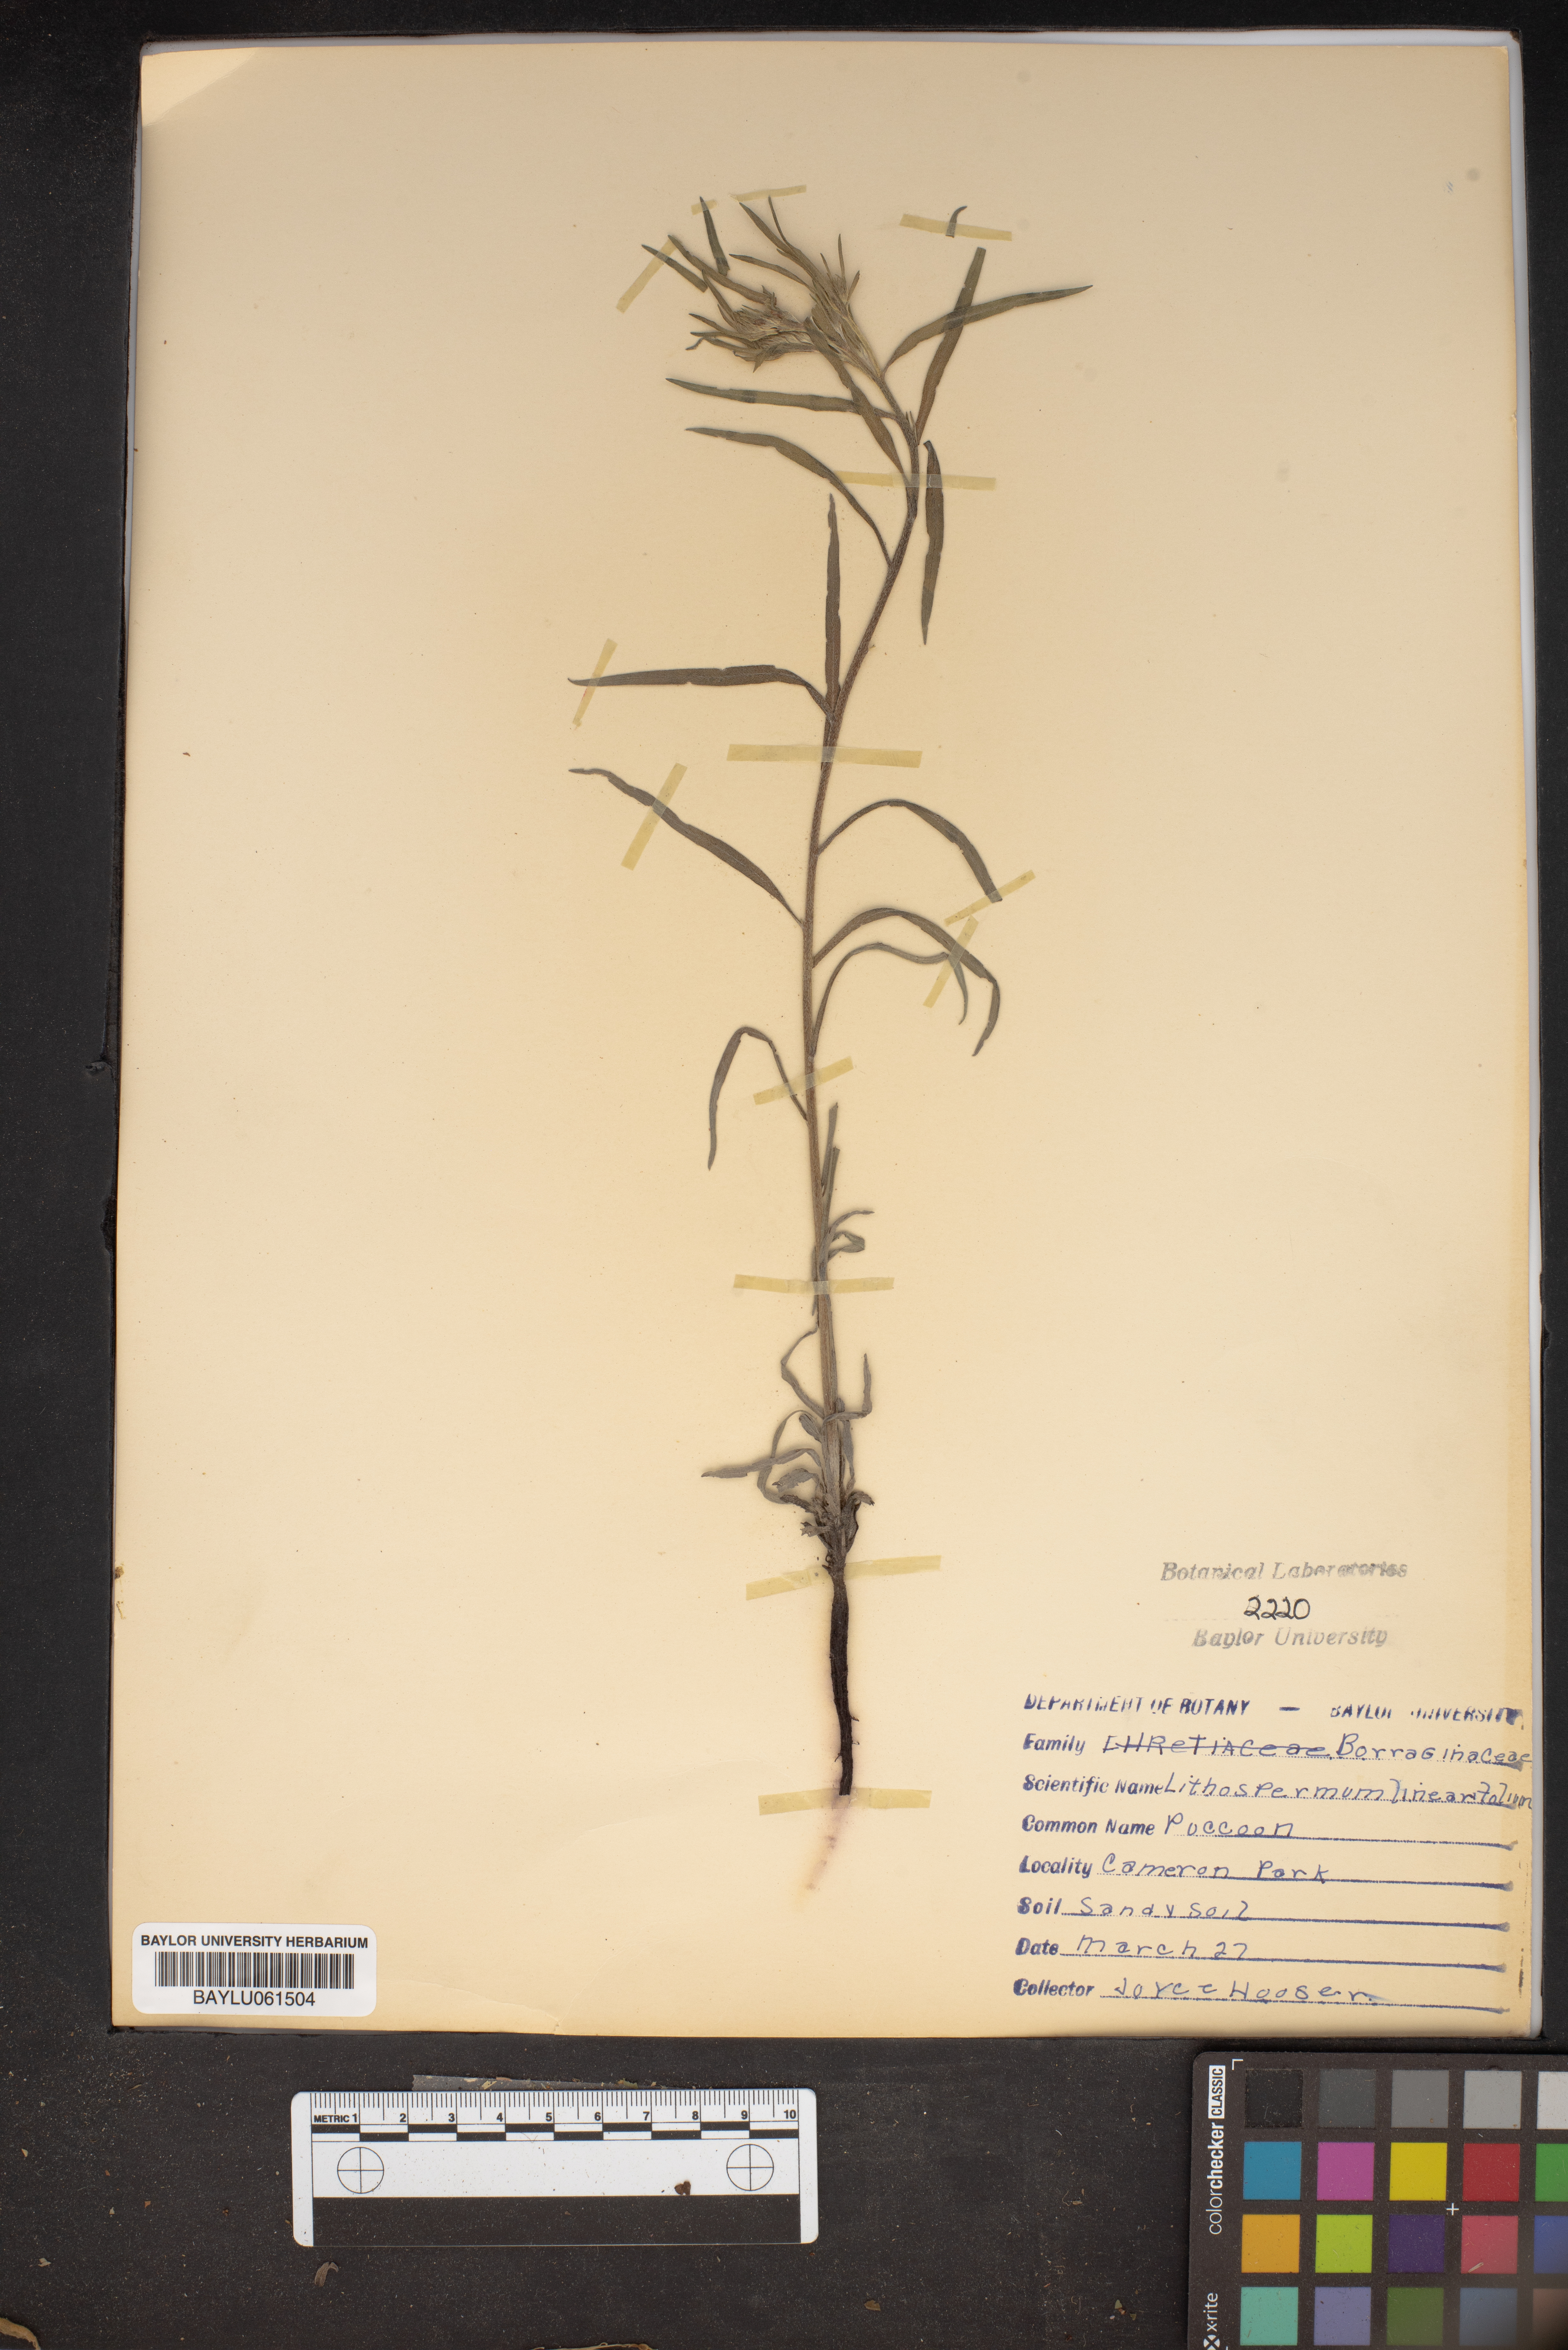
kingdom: Plantae
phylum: Tracheophyta
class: Magnoliopsida
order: Boraginales
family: Boraginaceae
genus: Lithospermum
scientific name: Lithospermum incisum
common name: Fringed gromwell
